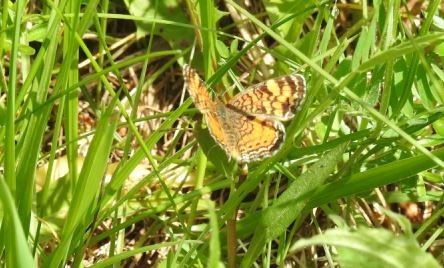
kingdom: Animalia
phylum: Arthropoda
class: Insecta
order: Lepidoptera
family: Nymphalidae
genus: Phyciodes
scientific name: Phyciodes tharos
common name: Pearl Crescent
